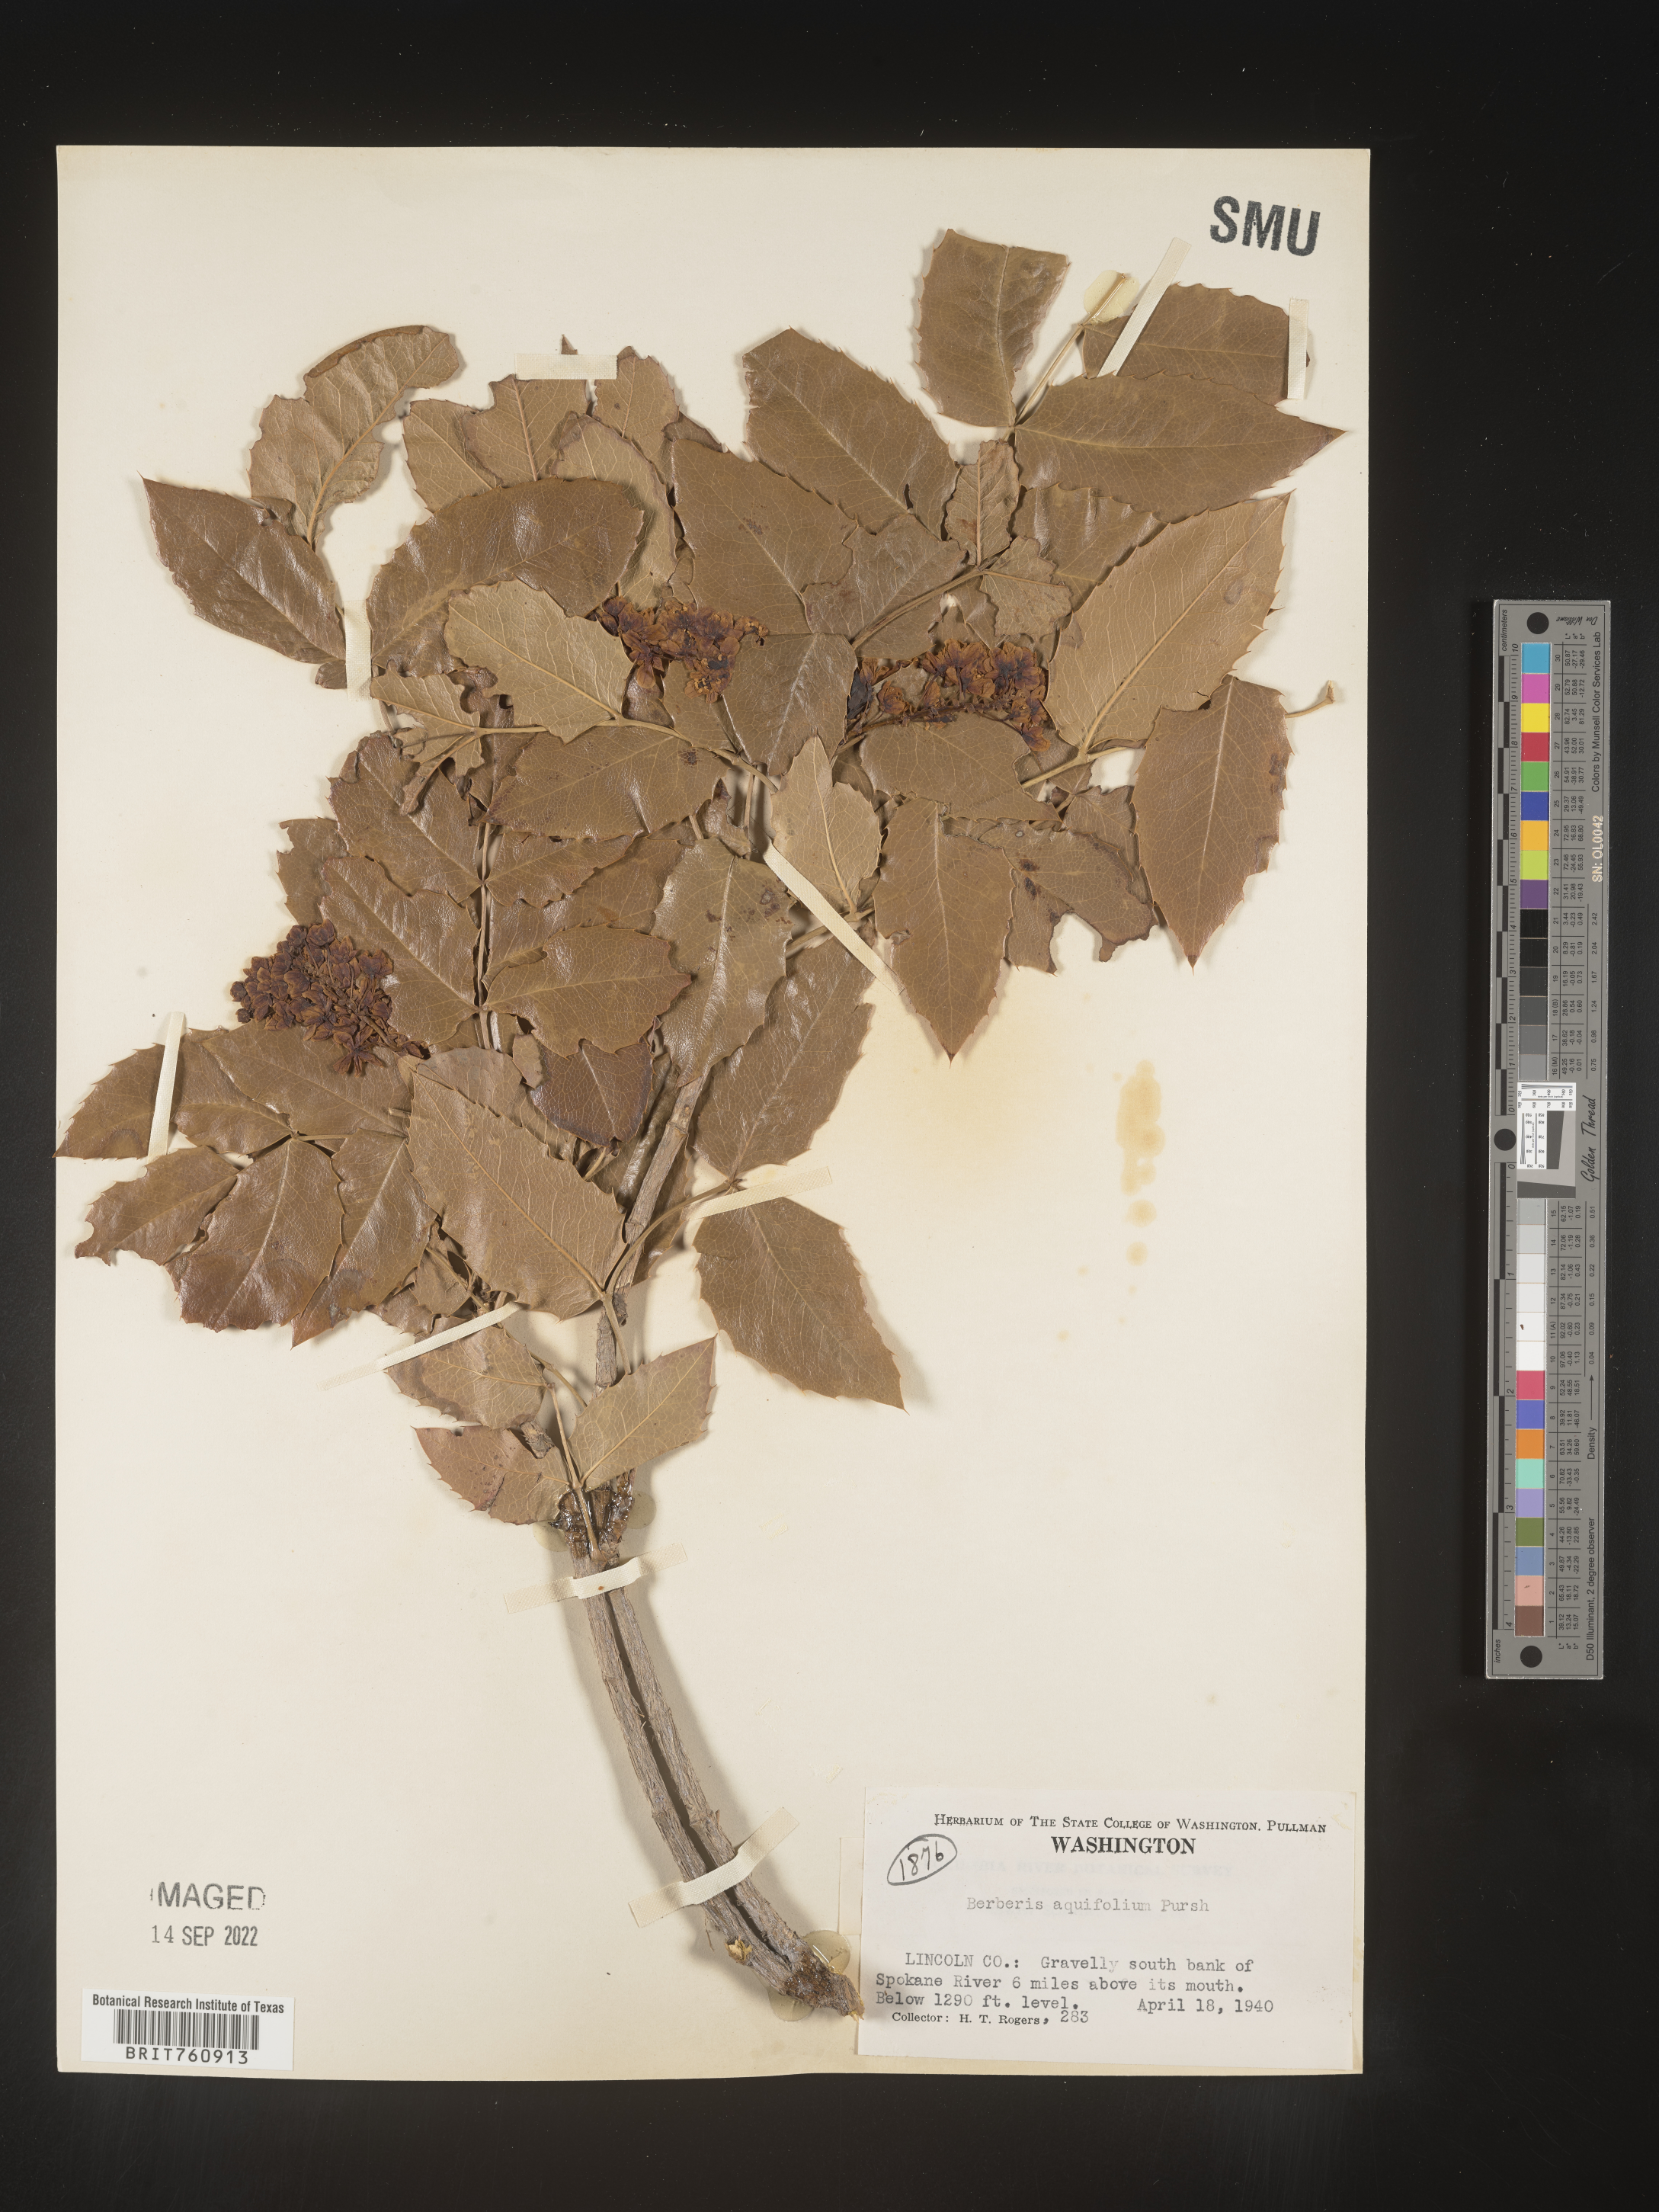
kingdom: Plantae
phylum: Tracheophyta
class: Magnoliopsida
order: Ranunculales
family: Berberidaceae
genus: Mahonia
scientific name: Mahonia aquifolium
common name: Oregon-grape
